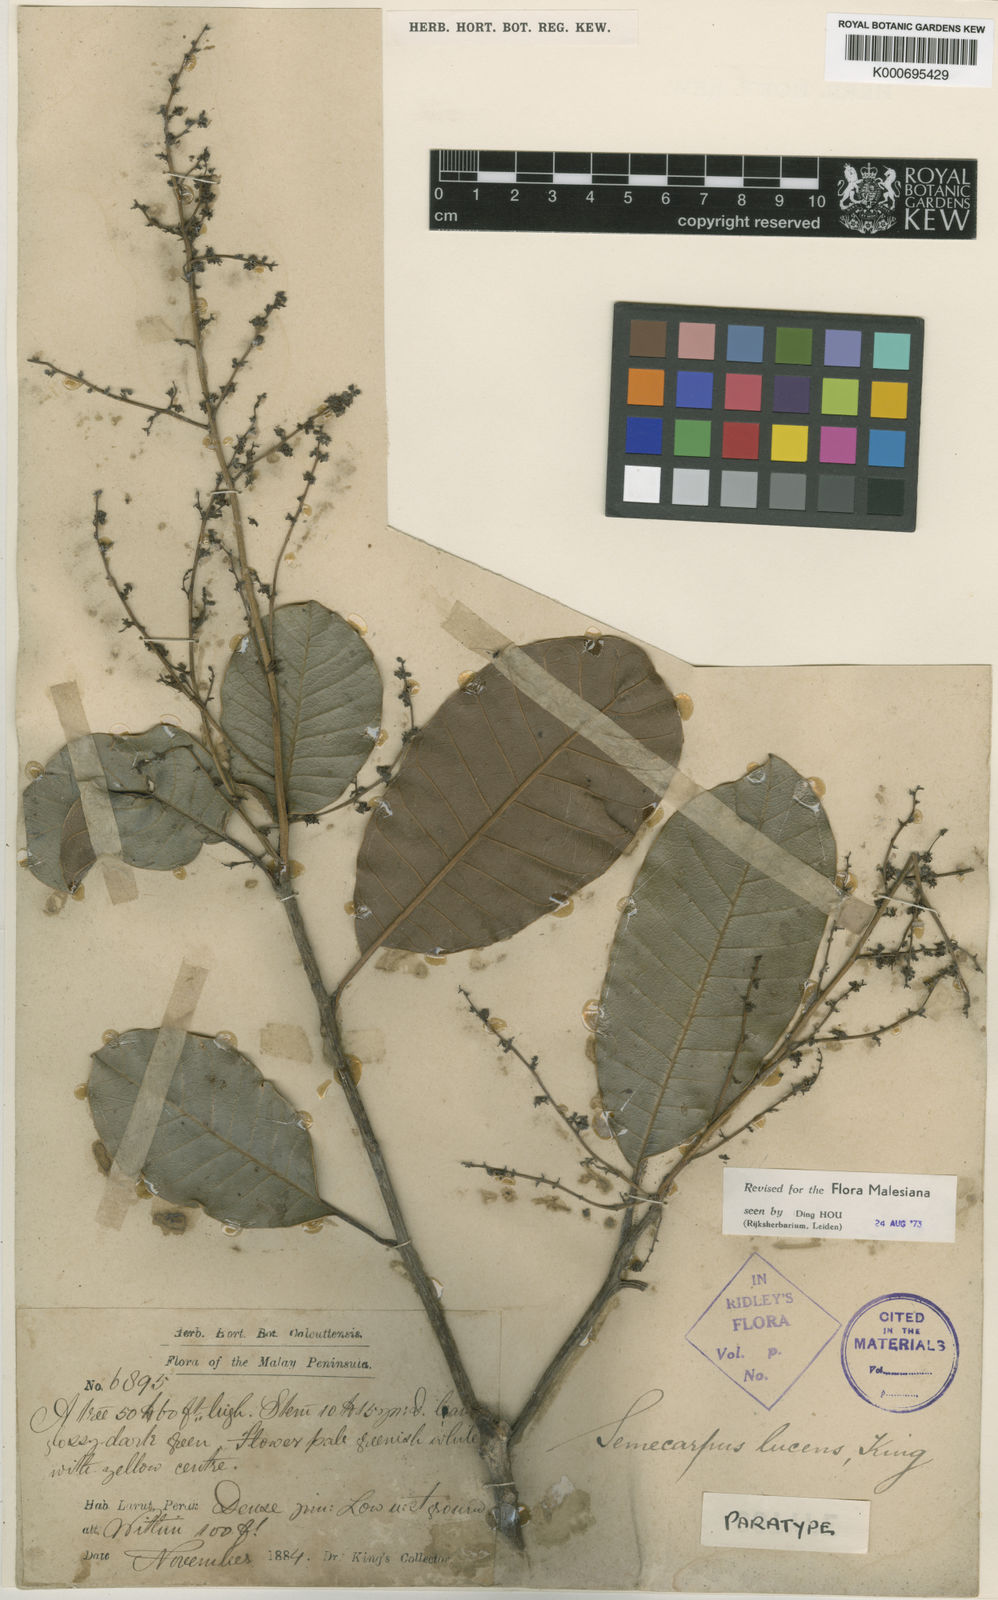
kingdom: Plantae
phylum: Tracheophyta
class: Magnoliopsida
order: Sapindales
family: Anacardiaceae
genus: Semecarpus
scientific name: Semecarpus lucens
